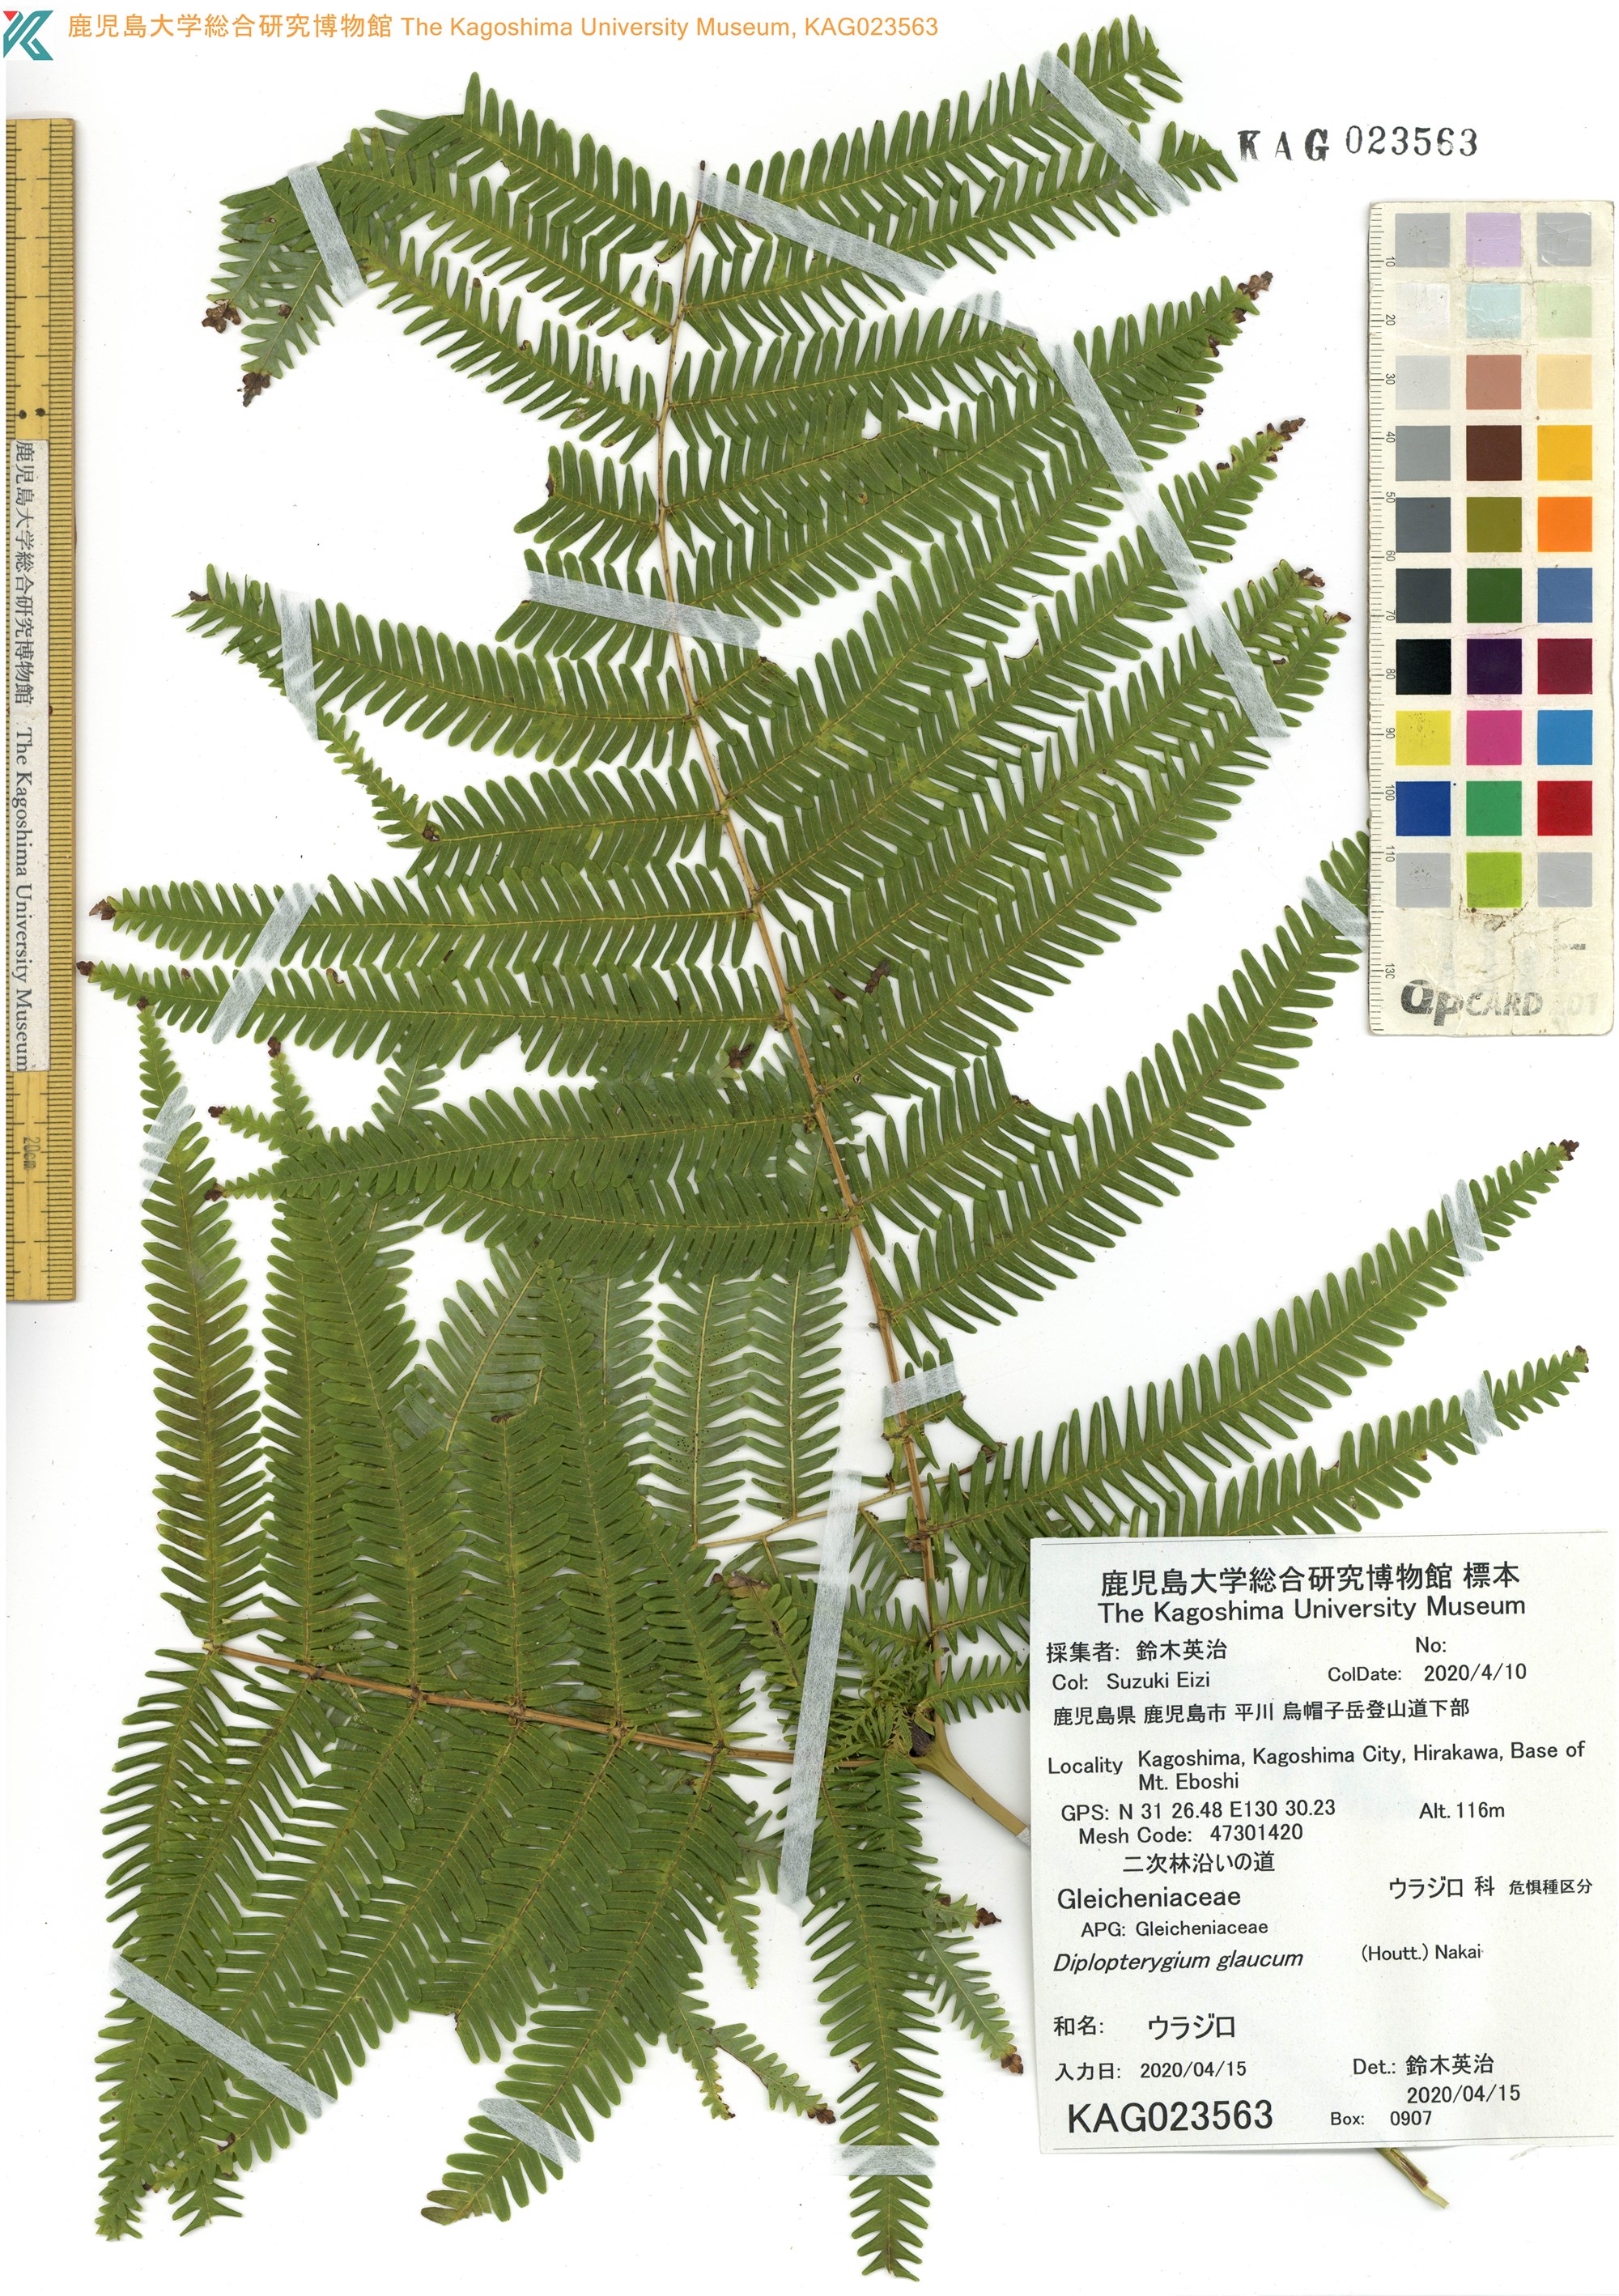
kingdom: Plantae
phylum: Tracheophyta
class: Polypodiopsida
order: Gleicheniales
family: Gleicheniaceae
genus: Diplopterygium
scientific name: Diplopterygium glaucum
